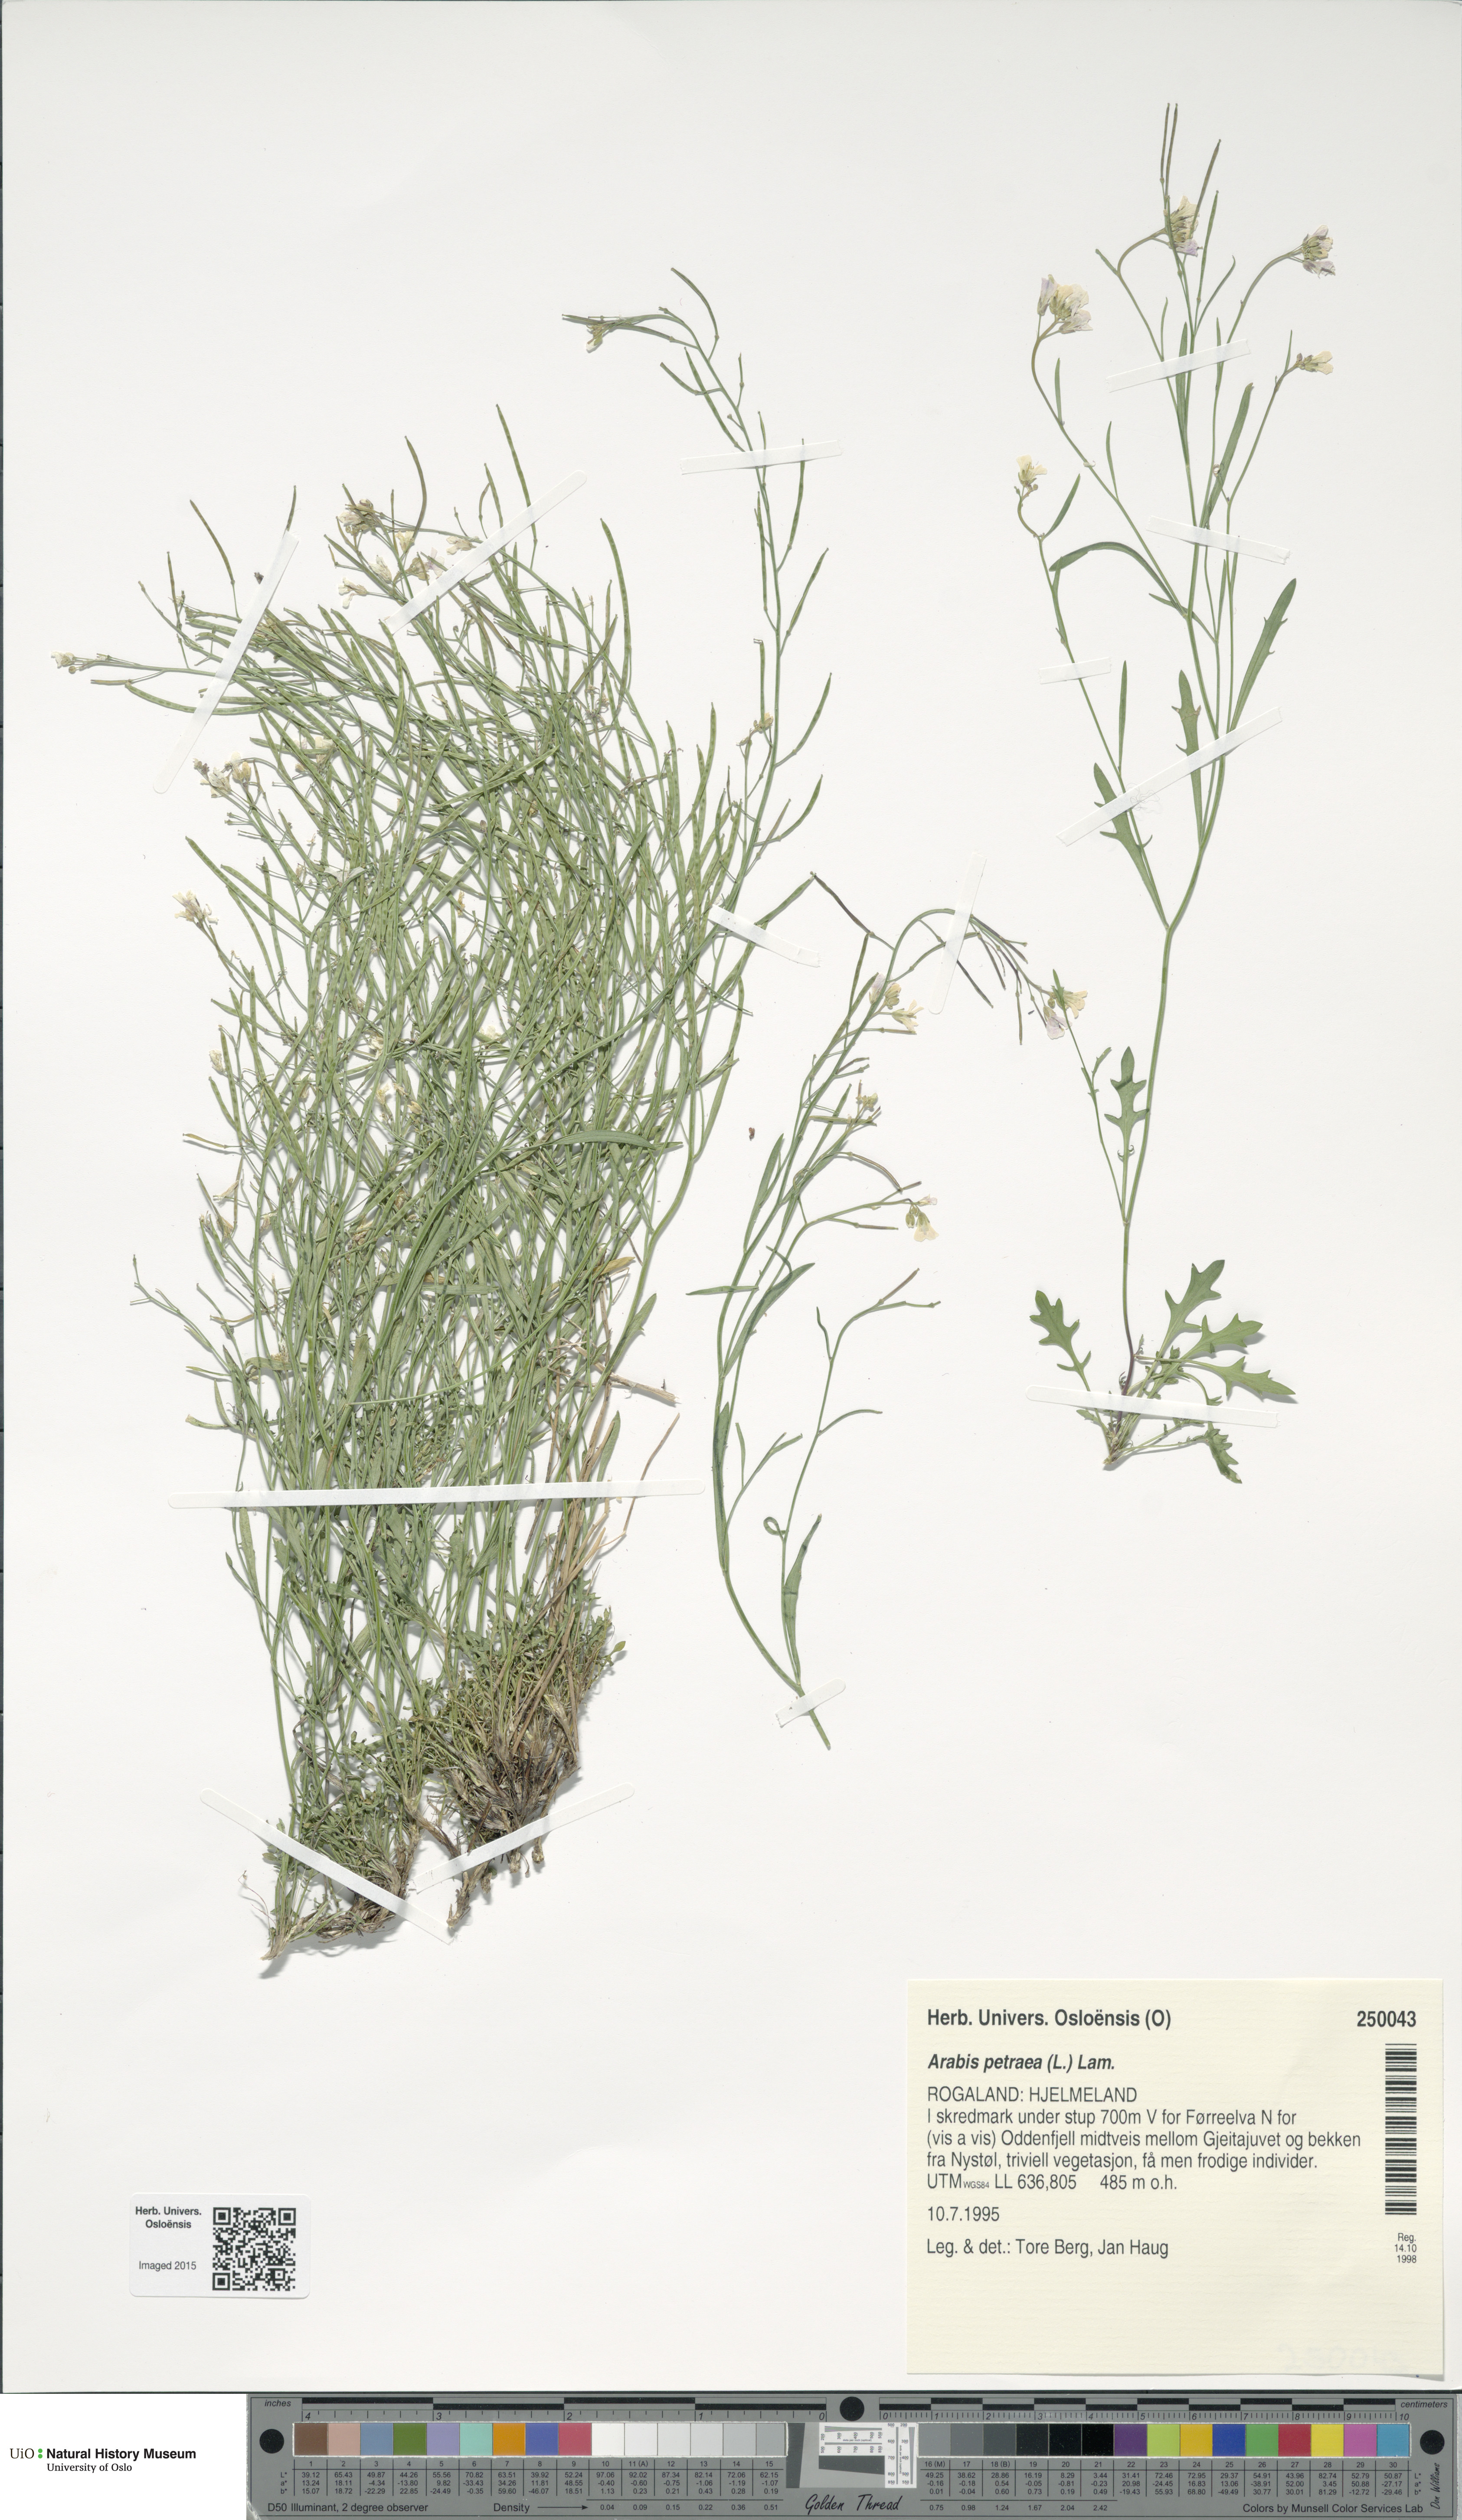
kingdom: Plantae
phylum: Tracheophyta
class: Magnoliopsida
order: Brassicales
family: Brassicaceae
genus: Arabidopsis
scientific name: Arabidopsis petraea
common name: Northern rock-cress
